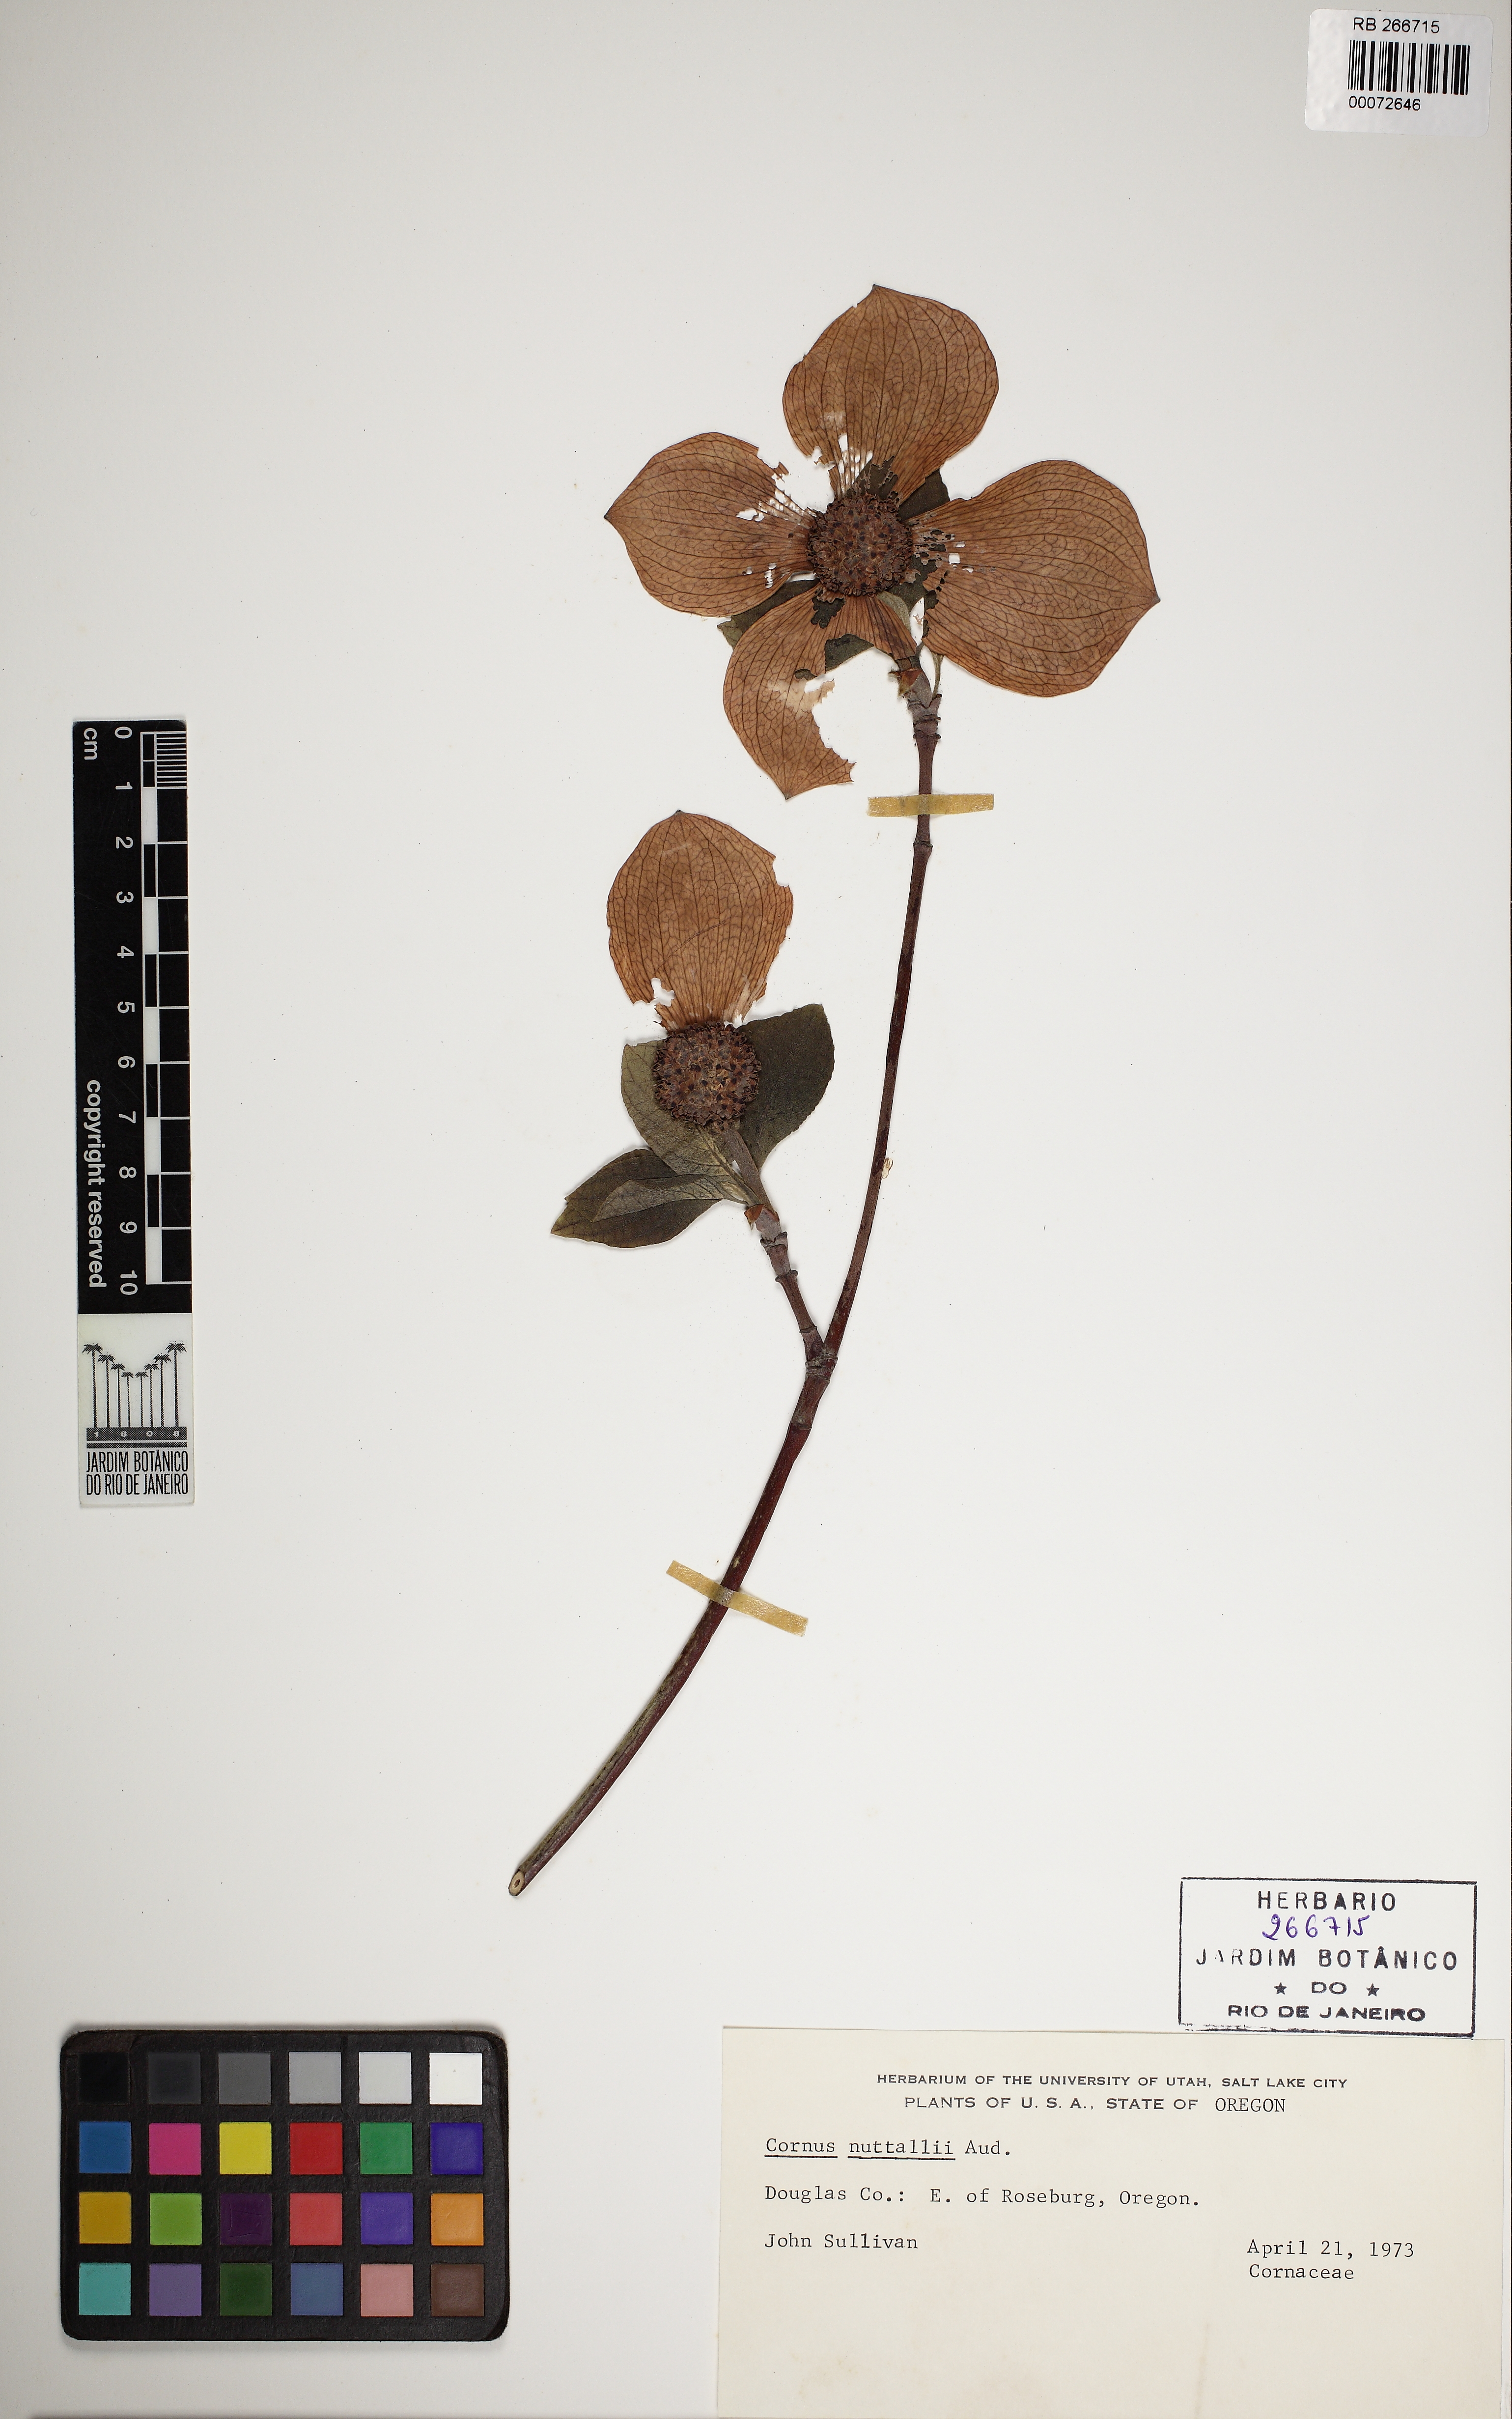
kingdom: Plantae
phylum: Tracheophyta
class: Magnoliopsida
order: Cornales
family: Cornaceae
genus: Cornus
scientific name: Cornus nuttallii
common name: Pacific dogwood
